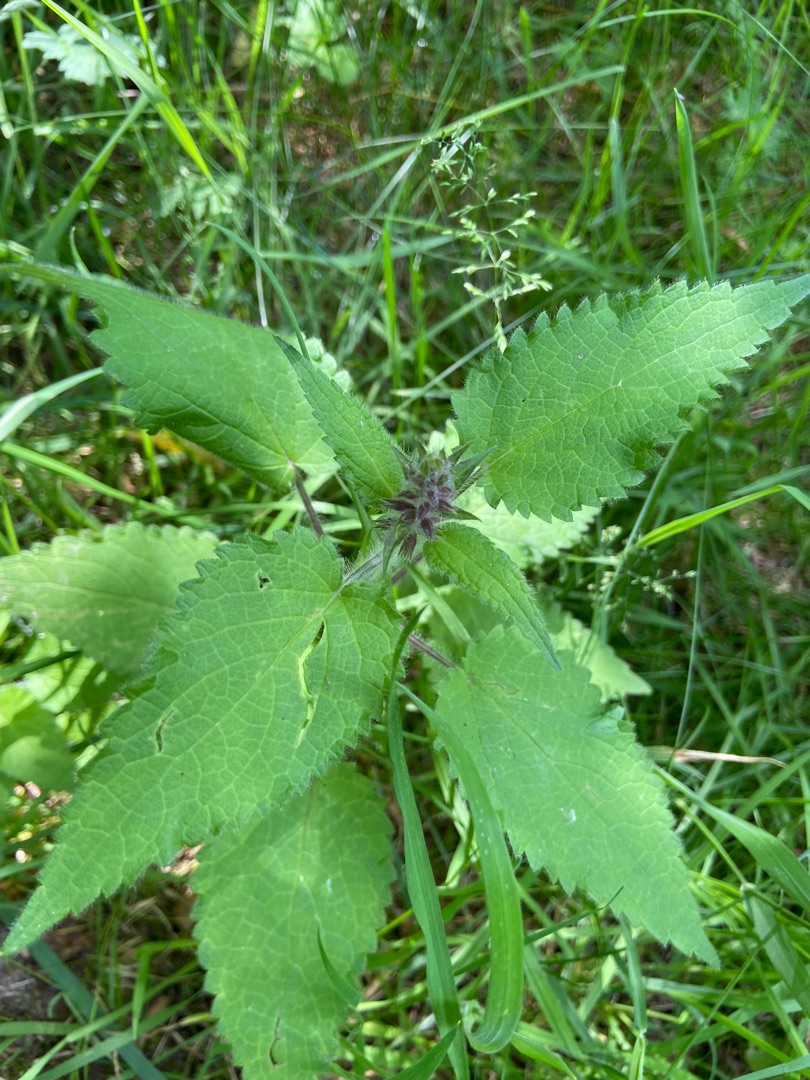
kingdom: Plantae
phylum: Tracheophyta
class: Magnoliopsida
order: Lamiales
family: Lamiaceae
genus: Stachys
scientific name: Stachys sylvatica
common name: Skov-galtetand
